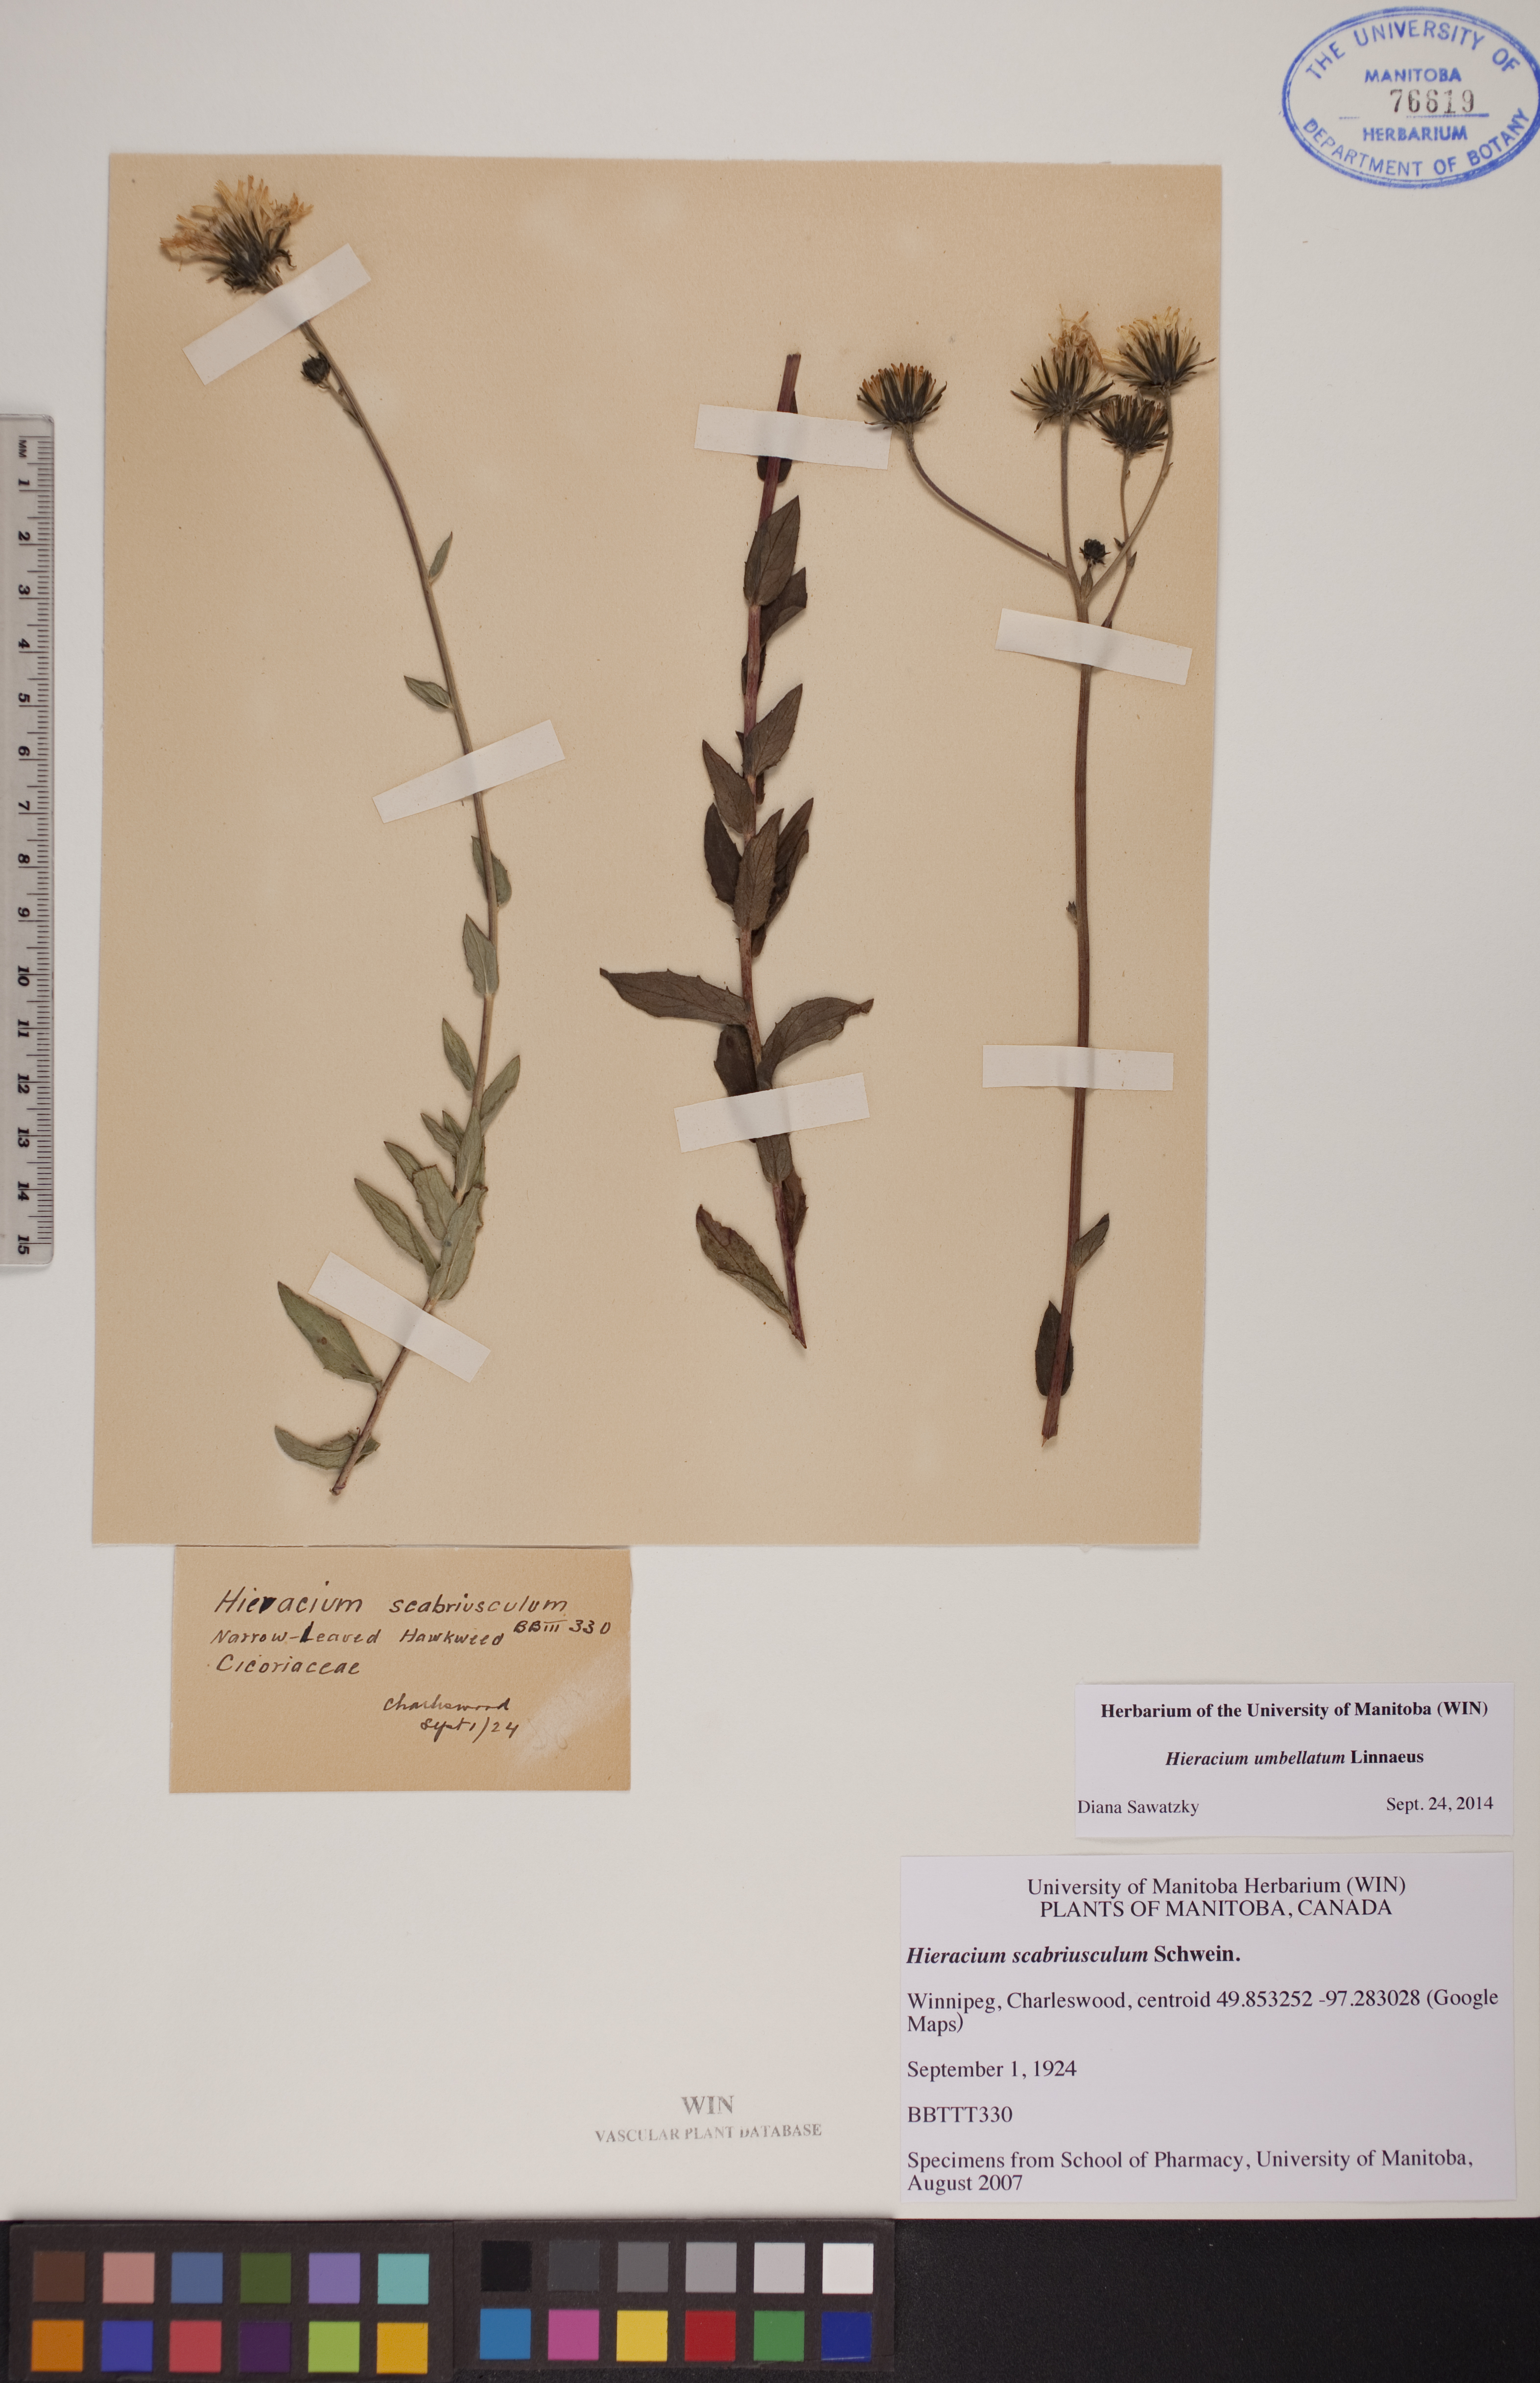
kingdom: Plantae
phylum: Tracheophyta
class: Magnoliopsida
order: Asterales
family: Asteraceae
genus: Hieracium
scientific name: Hieracium umbellatum
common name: Northern hawkweed
